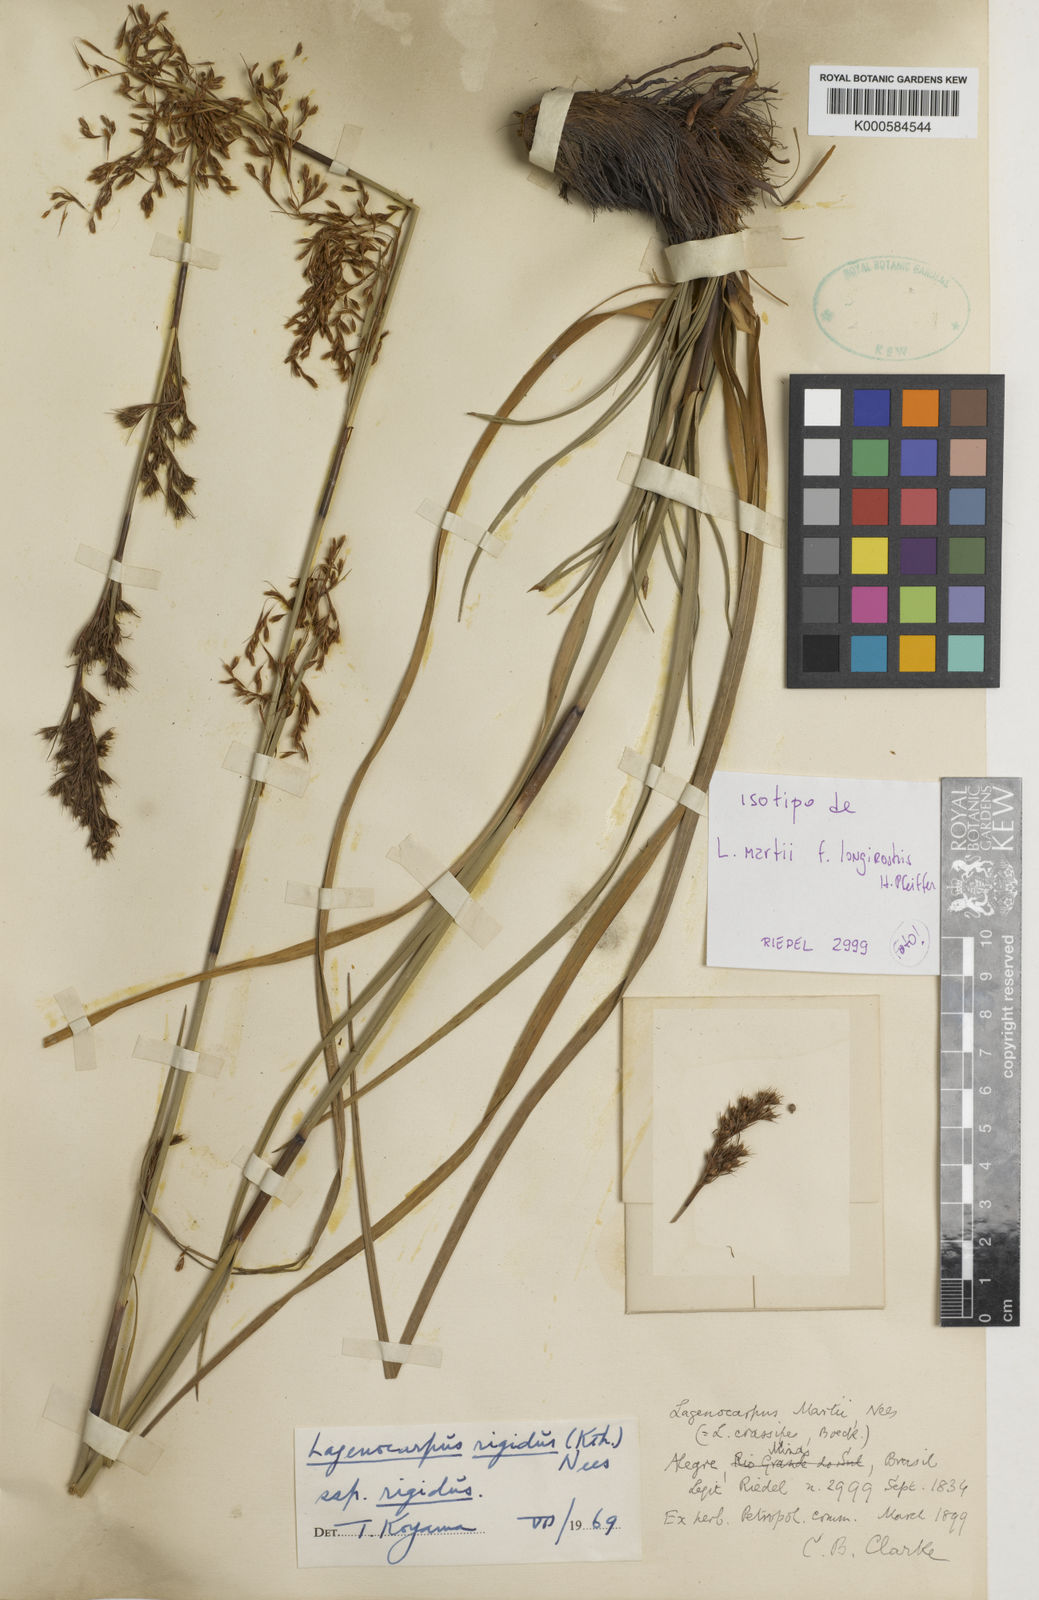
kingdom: Plantae
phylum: Tracheophyta
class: Liliopsida
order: Poales
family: Cyperaceae
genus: Lagenocarpus
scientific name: Lagenocarpus rigidus
